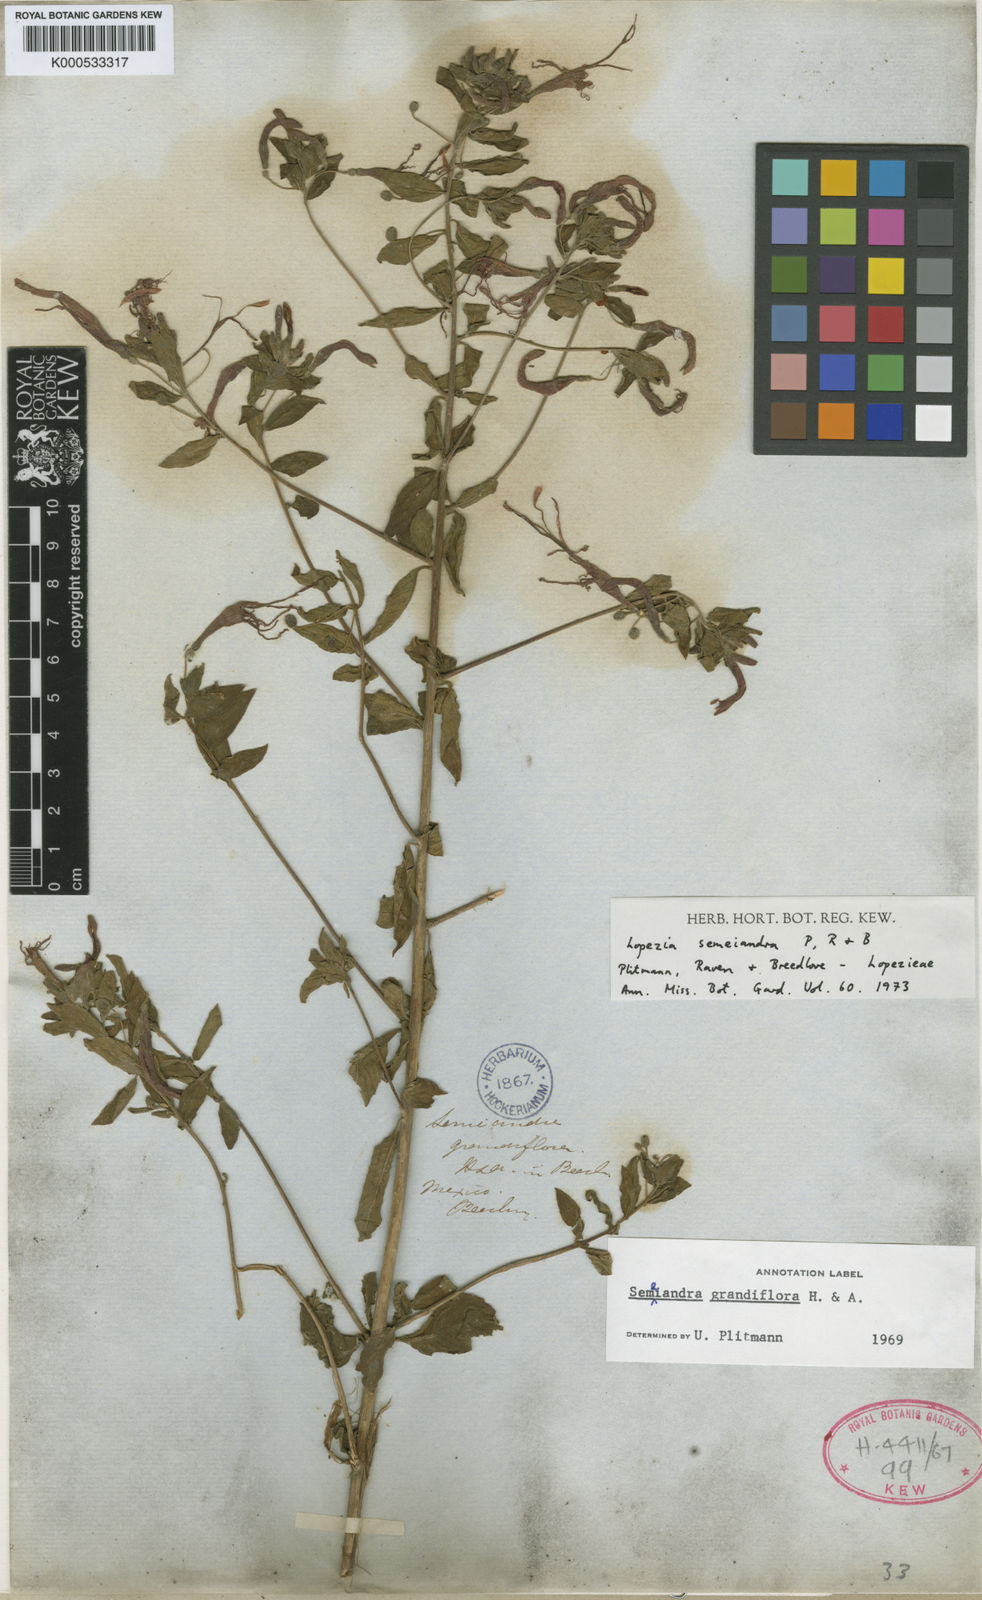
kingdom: Plantae
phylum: Tracheophyta
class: Magnoliopsida
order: Myrtales
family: Onagraceae
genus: Lopezia
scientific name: Lopezia semeiandra
